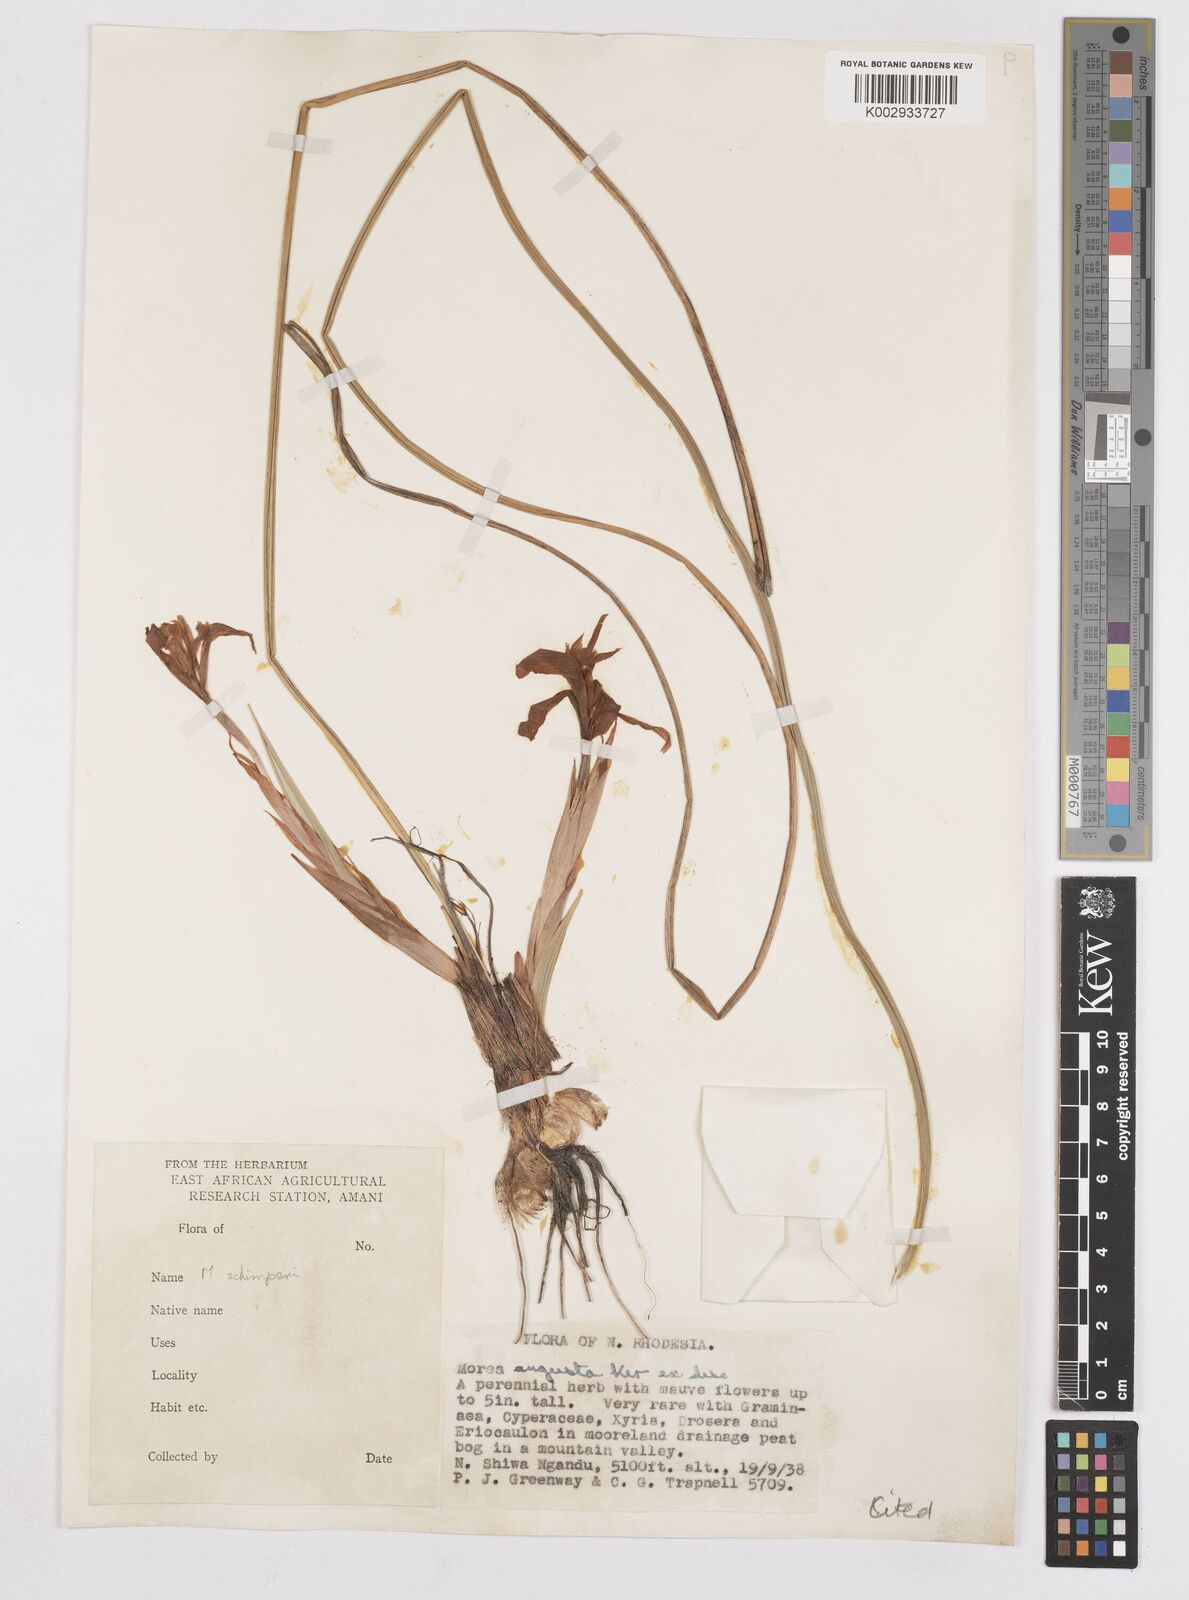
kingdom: Plantae
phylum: Tracheophyta
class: Liliopsida
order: Asparagales
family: Iridaceae
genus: Moraea
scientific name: Moraea schimperi
